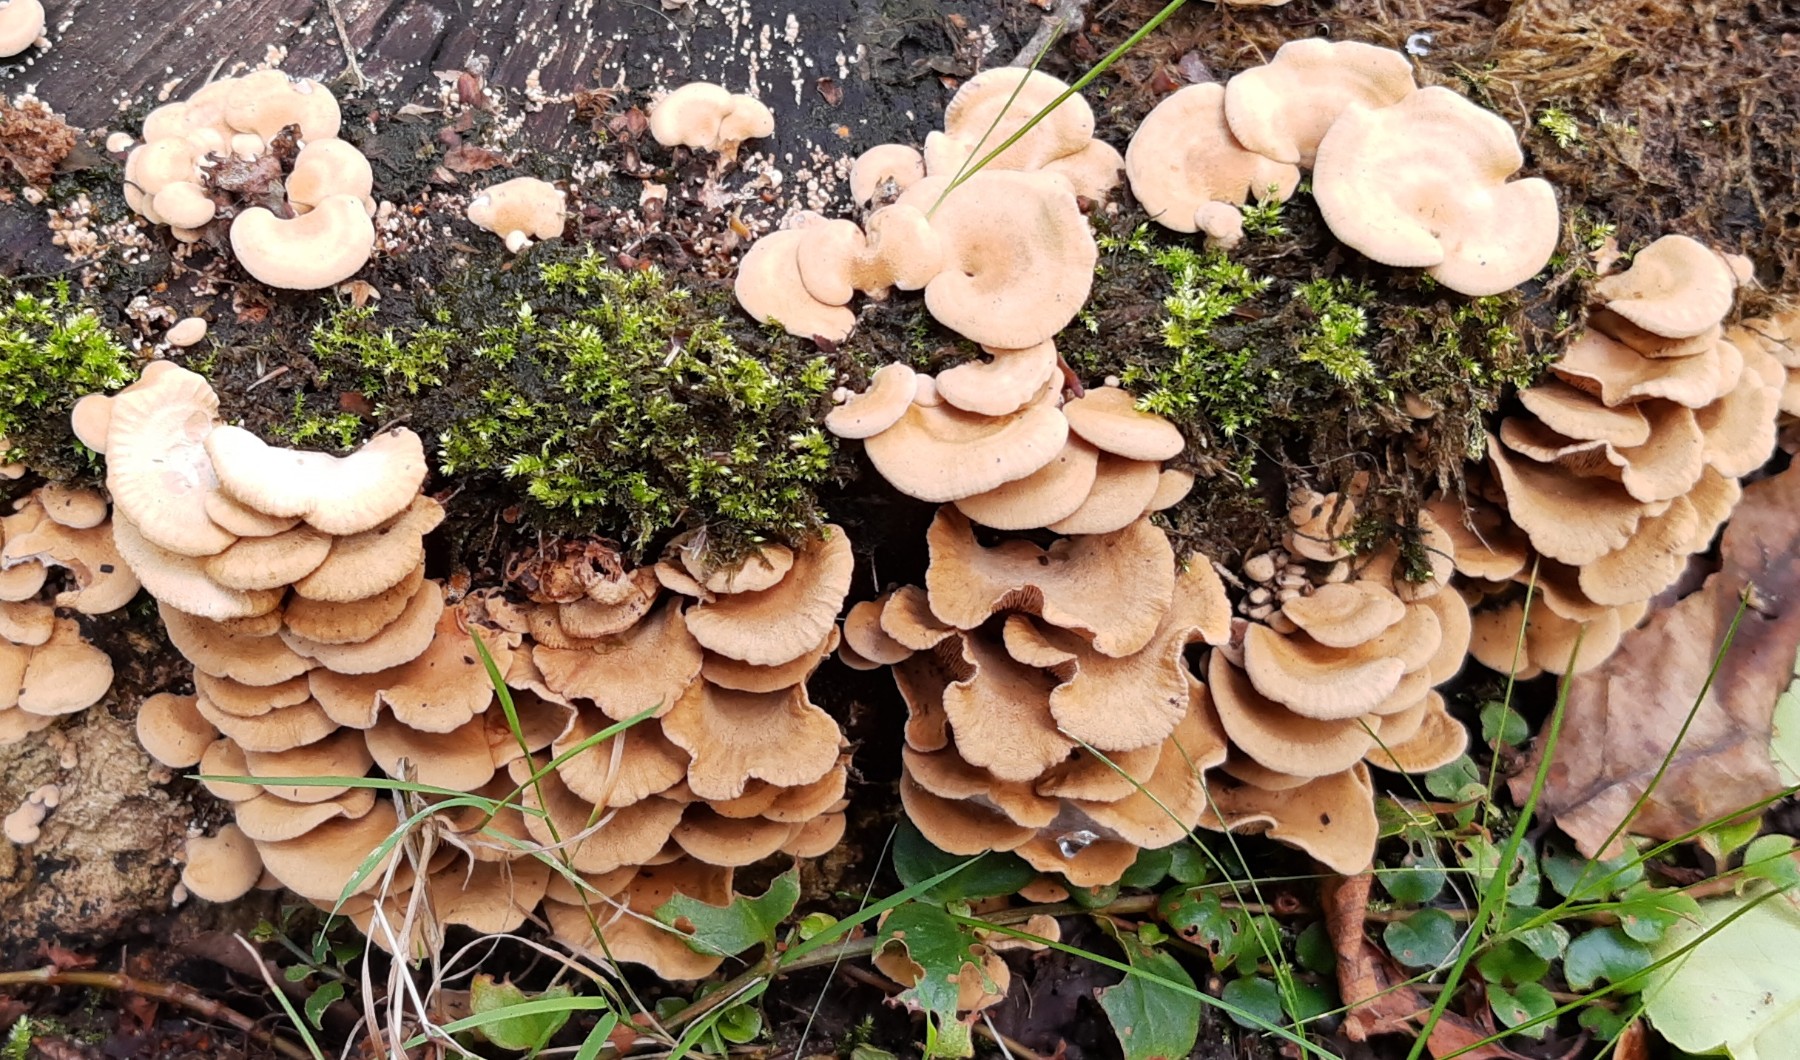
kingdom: Fungi
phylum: Basidiomycota
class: Agaricomycetes
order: Agaricales
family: Mycenaceae
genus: Panellus
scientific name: Panellus stipticus
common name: kliddet epaulethat
